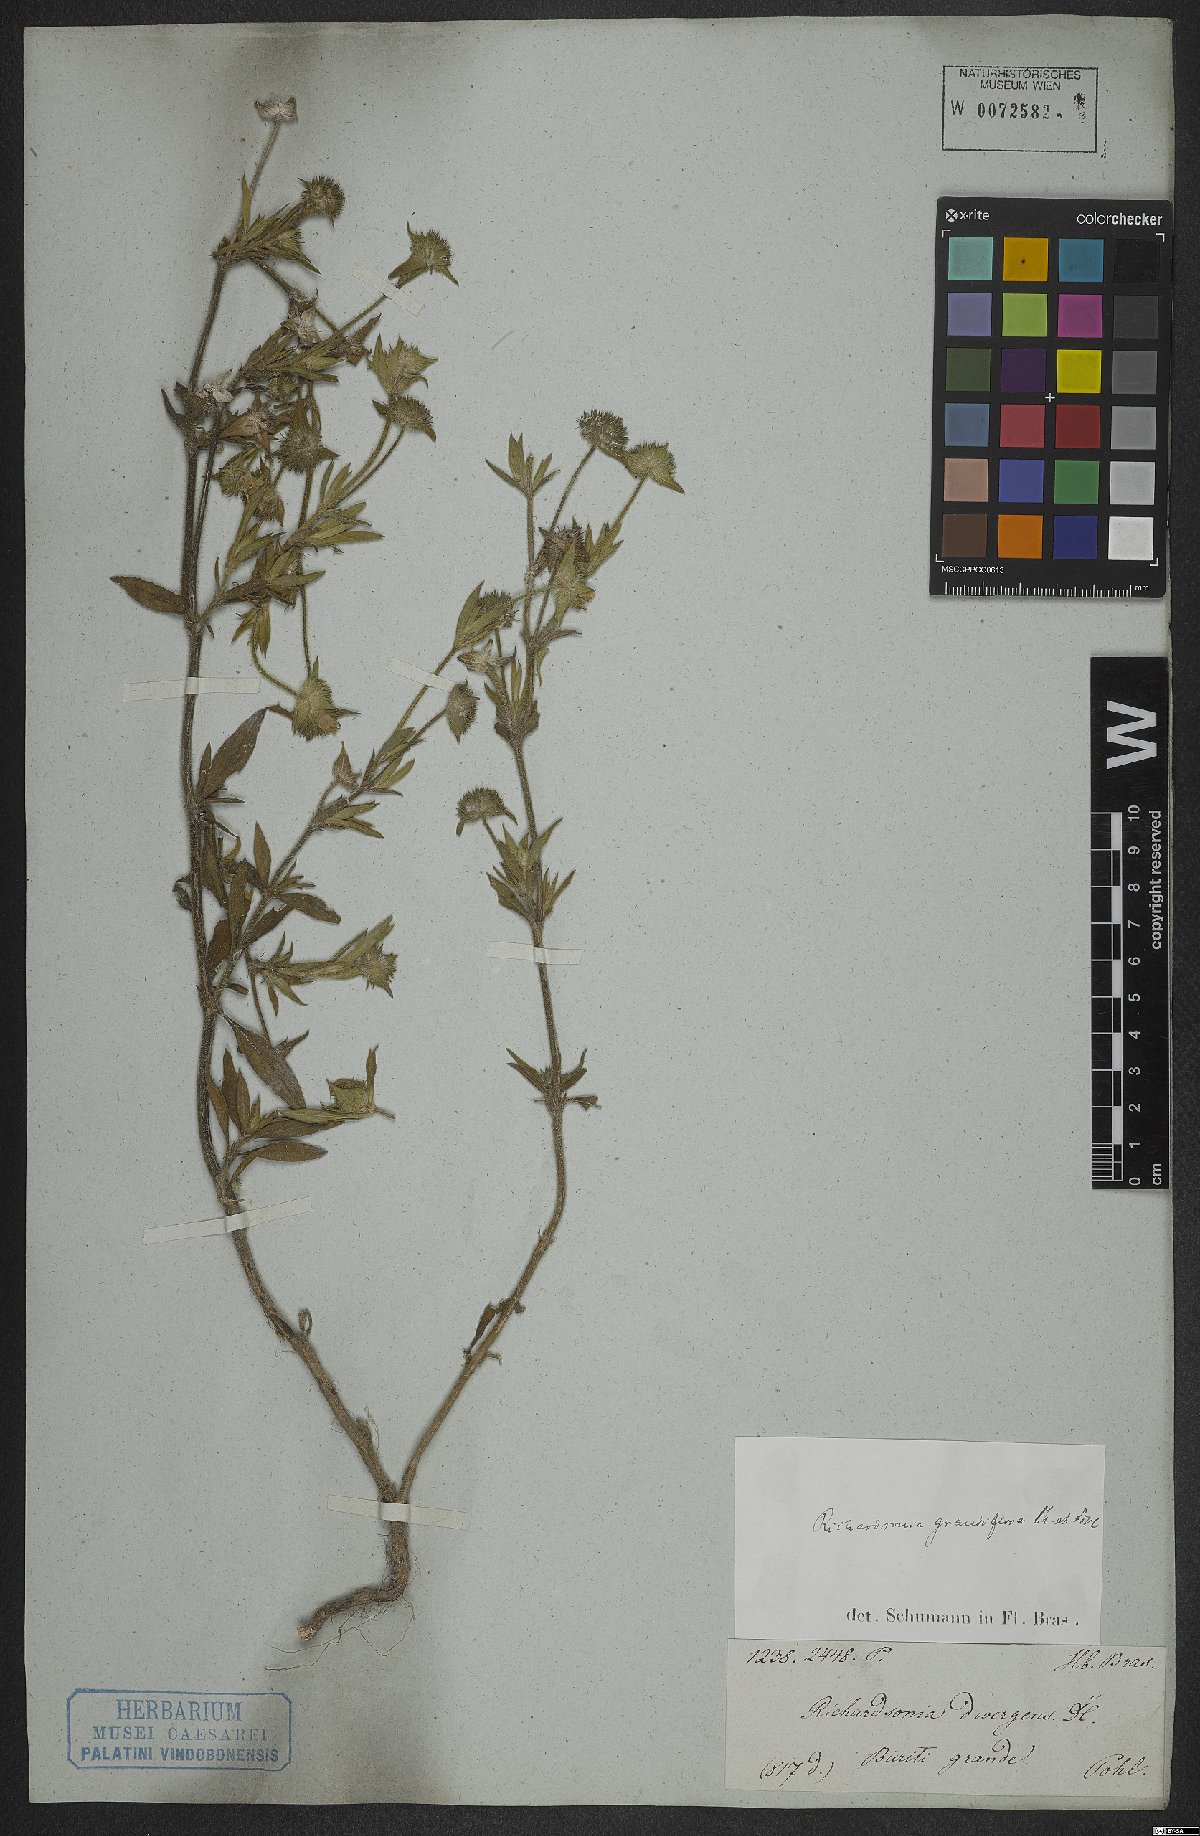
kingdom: Plantae
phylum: Tracheophyta
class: Magnoliopsida
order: Gentianales
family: Rubiaceae
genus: Richardia
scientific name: Richardia grandiflora
